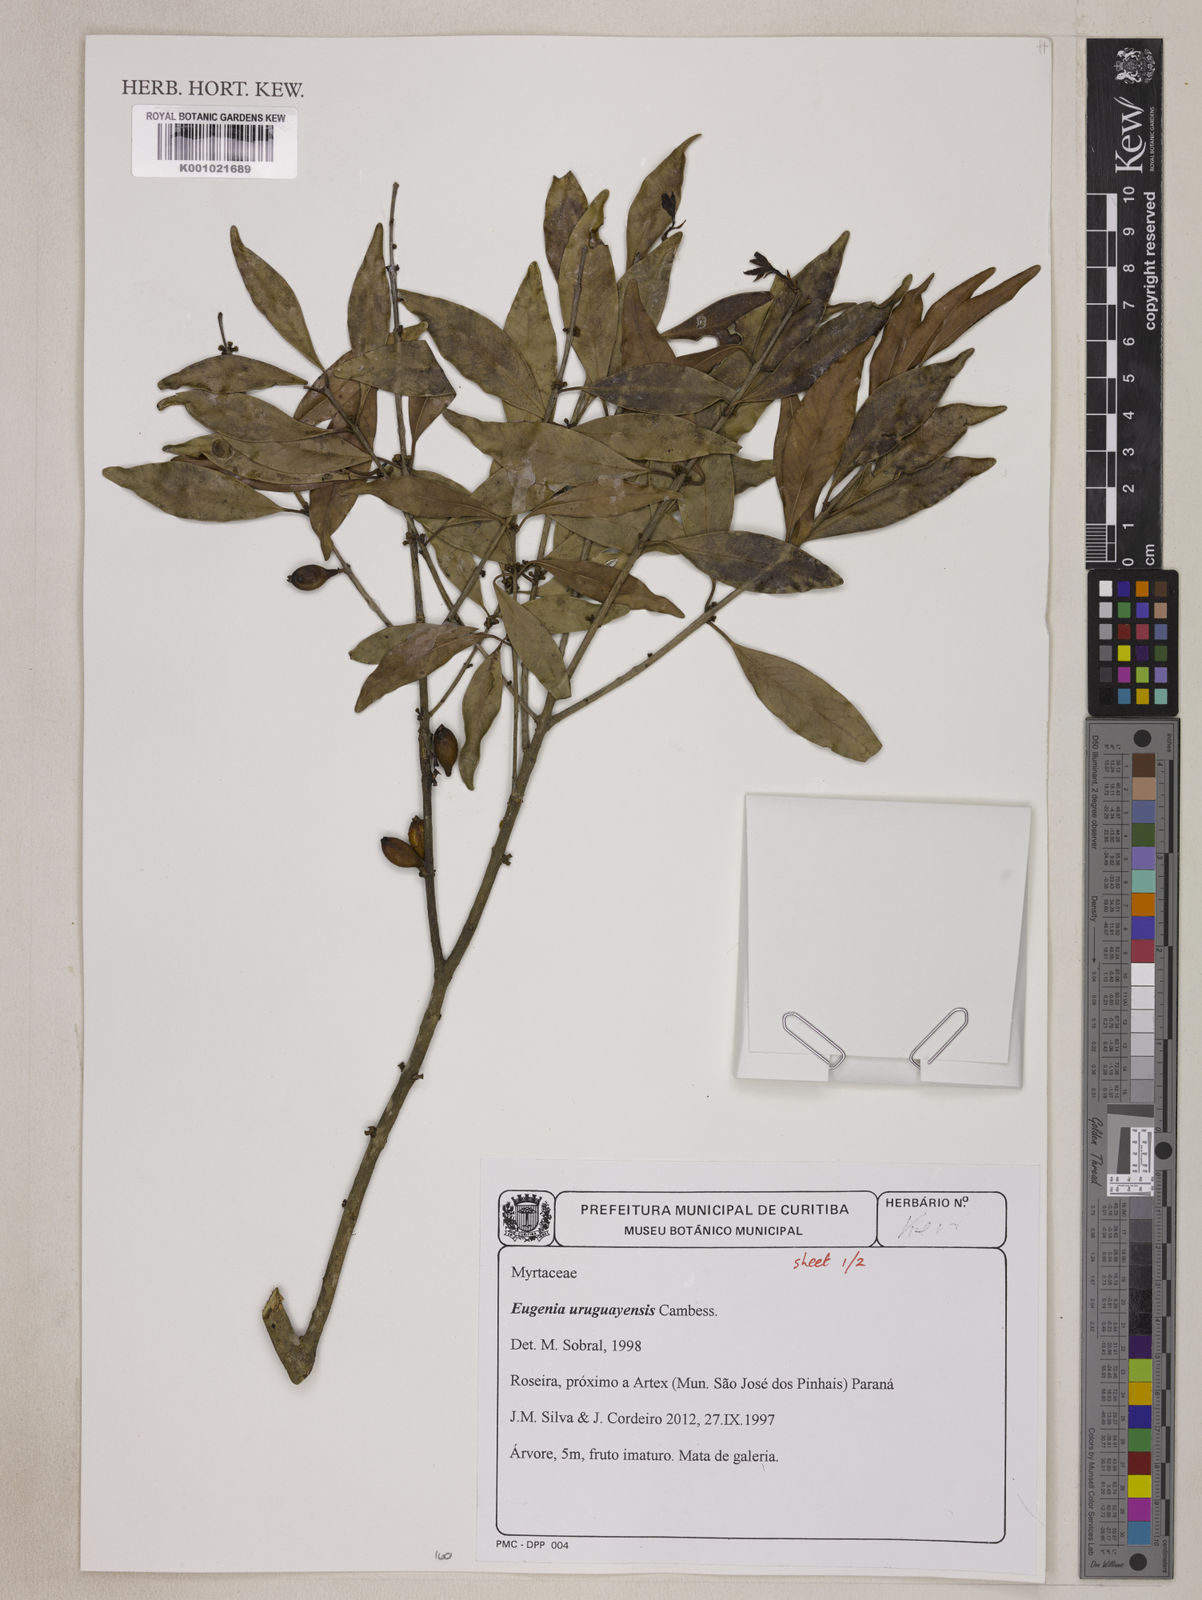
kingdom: Plantae
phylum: Tracheophyta
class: Magnoliopsida
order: Myrtales
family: Myrtaceae
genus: Eugenia
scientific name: Eugenia uruguayensis
